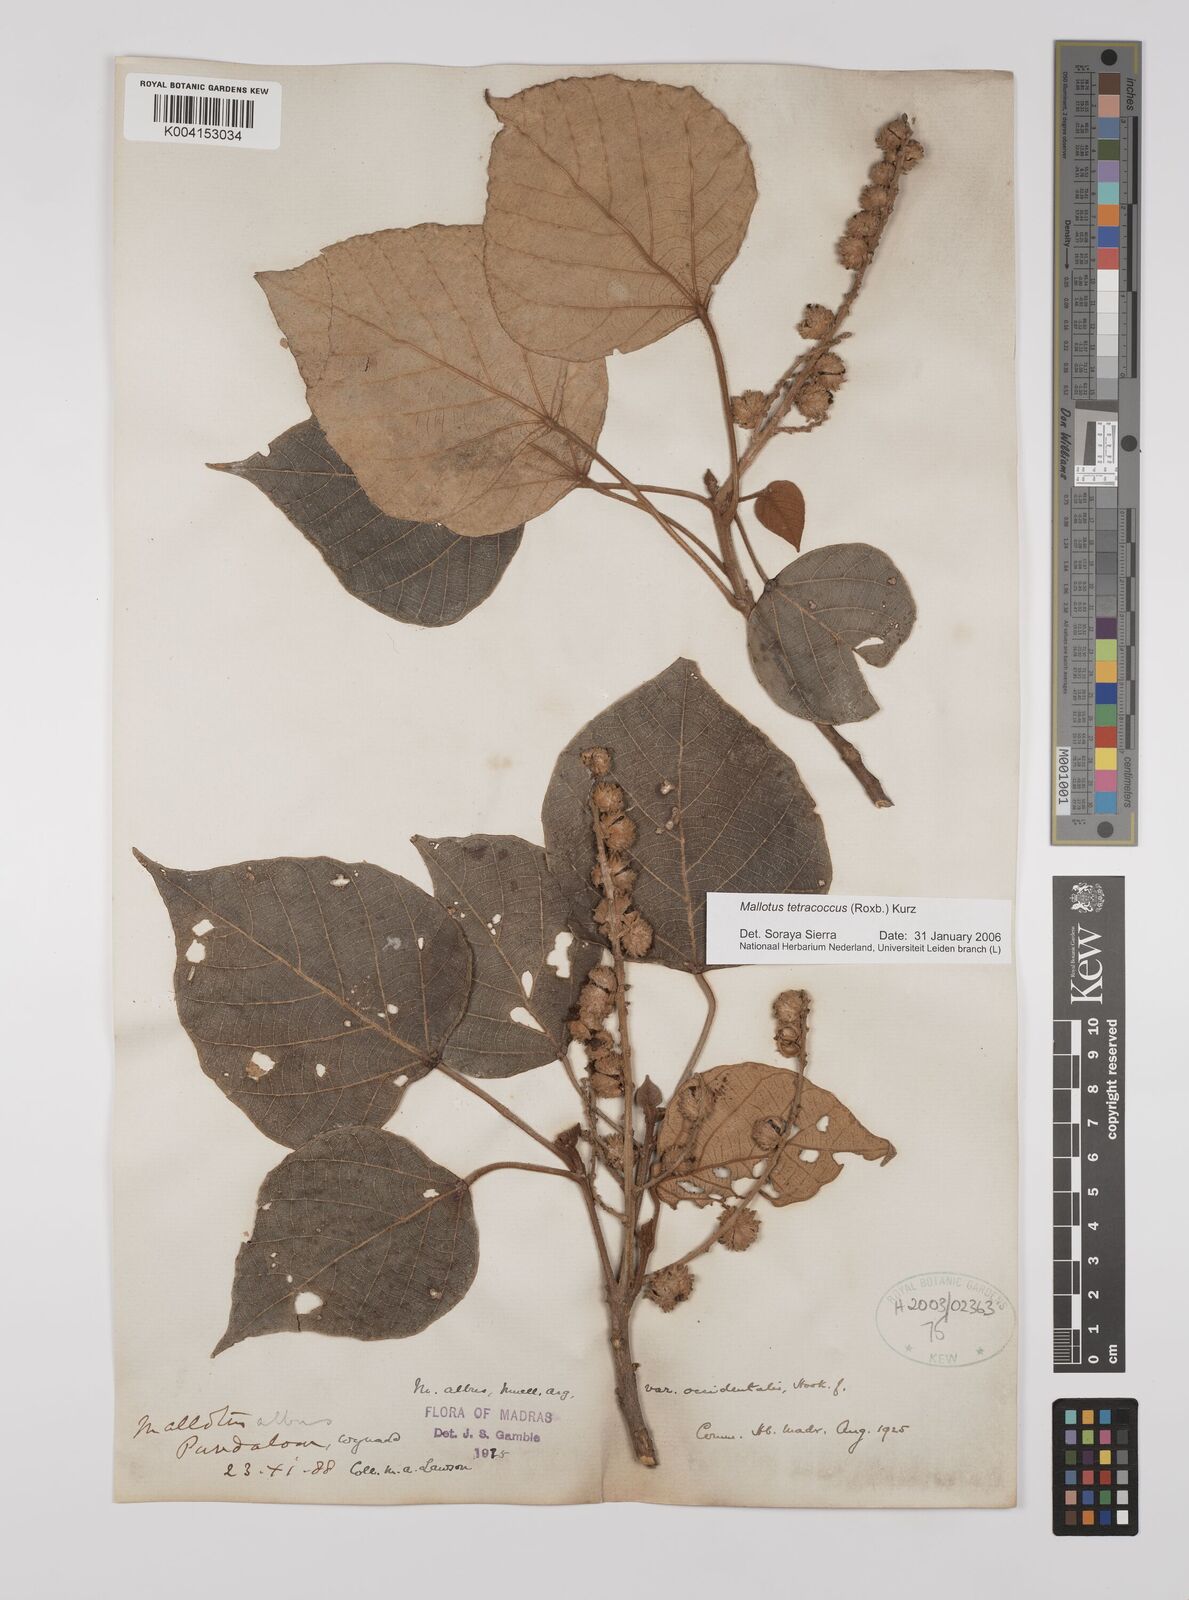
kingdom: Plantae
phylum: Tracheophyta
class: Magnoliopsida
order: Malpighiales
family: Euphorbiaceae
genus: Mallotus
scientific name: Mallotus tetracoccus
